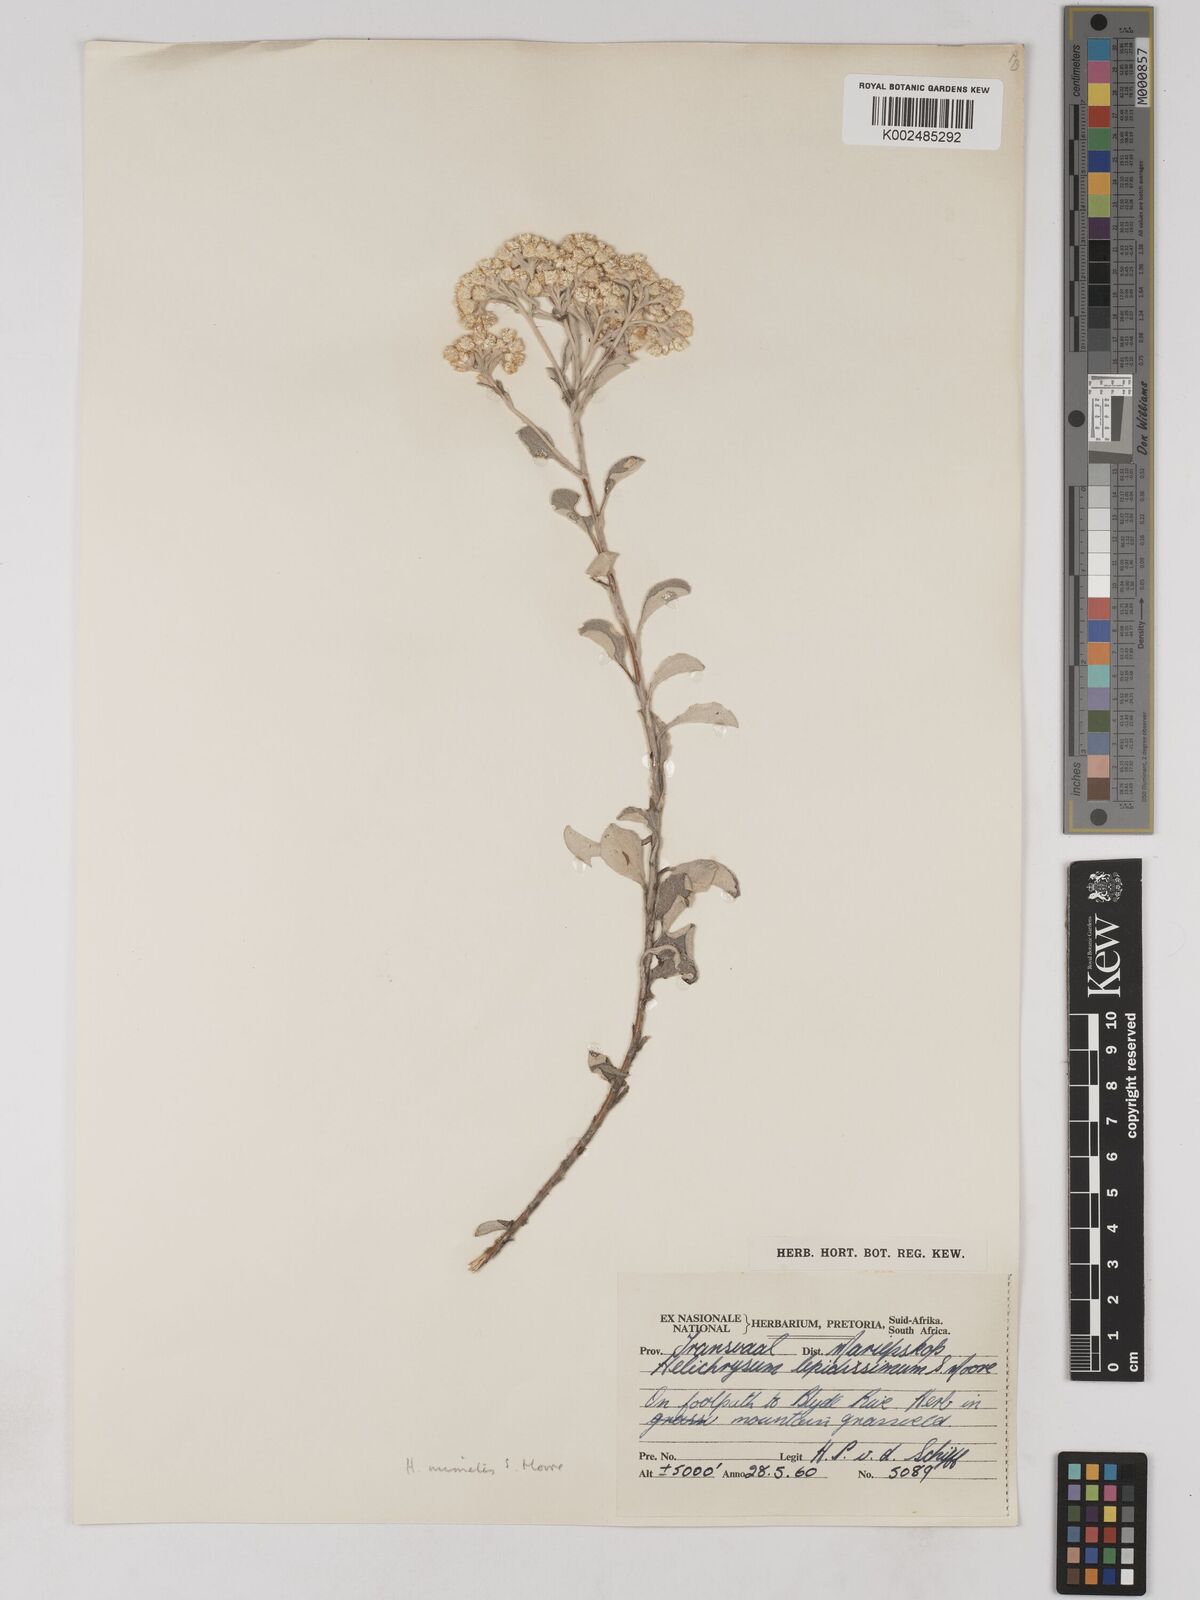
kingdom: Plantae
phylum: Tracheophyta
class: Magnoliopsida
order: Asterales
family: Asteraceae
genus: Helichrysum
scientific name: Helichrysum mimetes
